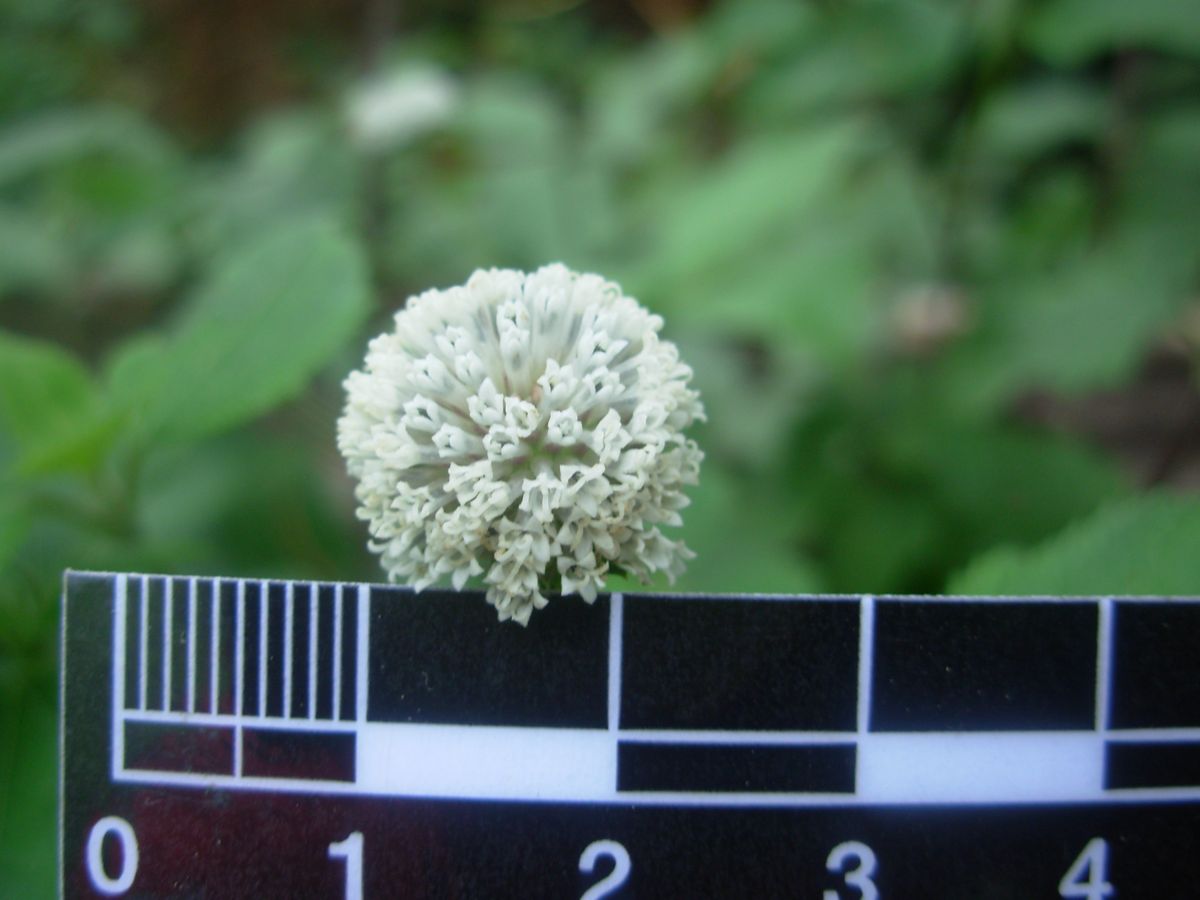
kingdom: Plantae
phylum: Tracheophyta
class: Magnoliopsida
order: Asterales
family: Asteraceae
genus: Melanthera
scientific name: Melanthera nivea
